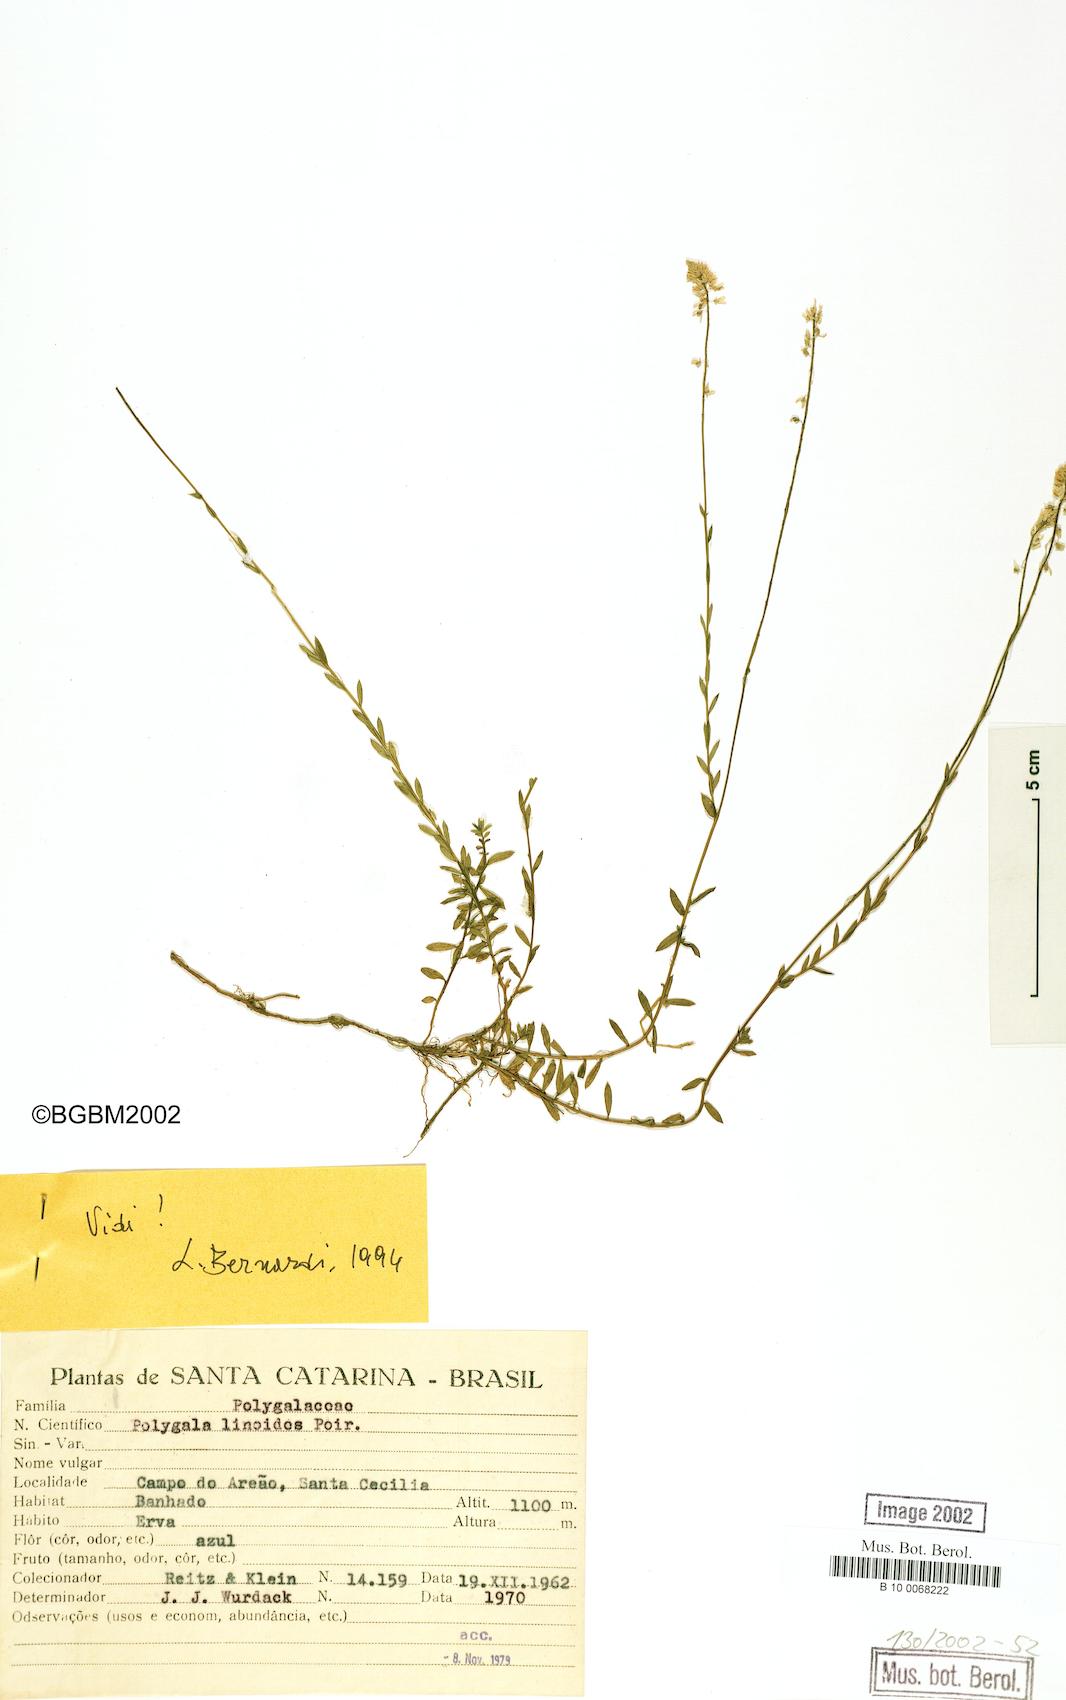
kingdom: Plantae
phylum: Tracheophyta
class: Magnoliopsida
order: Fabales
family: Polygalaceae
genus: Polygala
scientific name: Polygala linoides
